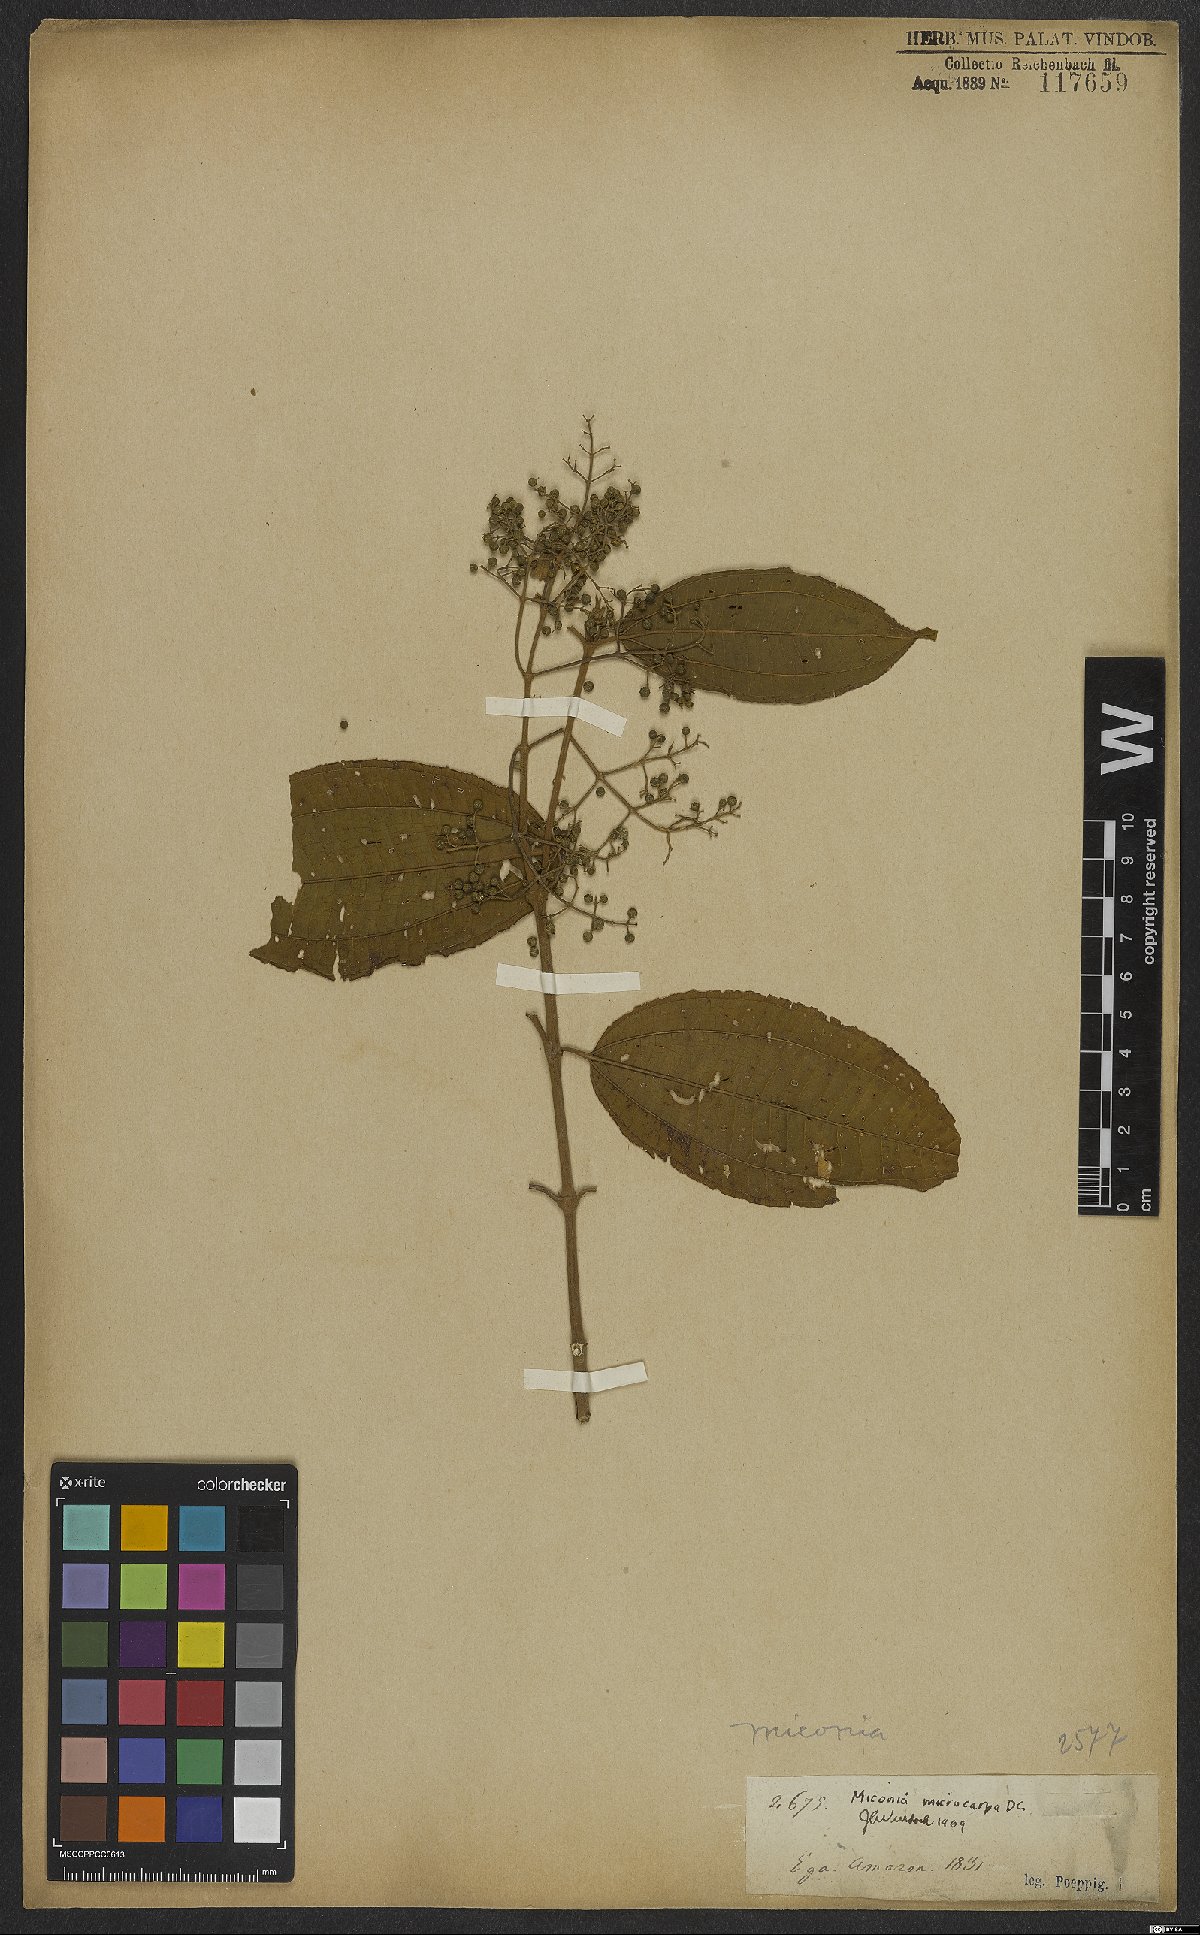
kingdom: Plantae
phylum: Tracheophyta
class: Magnoliopsida
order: Myrtales
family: Melastomataceae
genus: Miconia
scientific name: Miconia affinis
